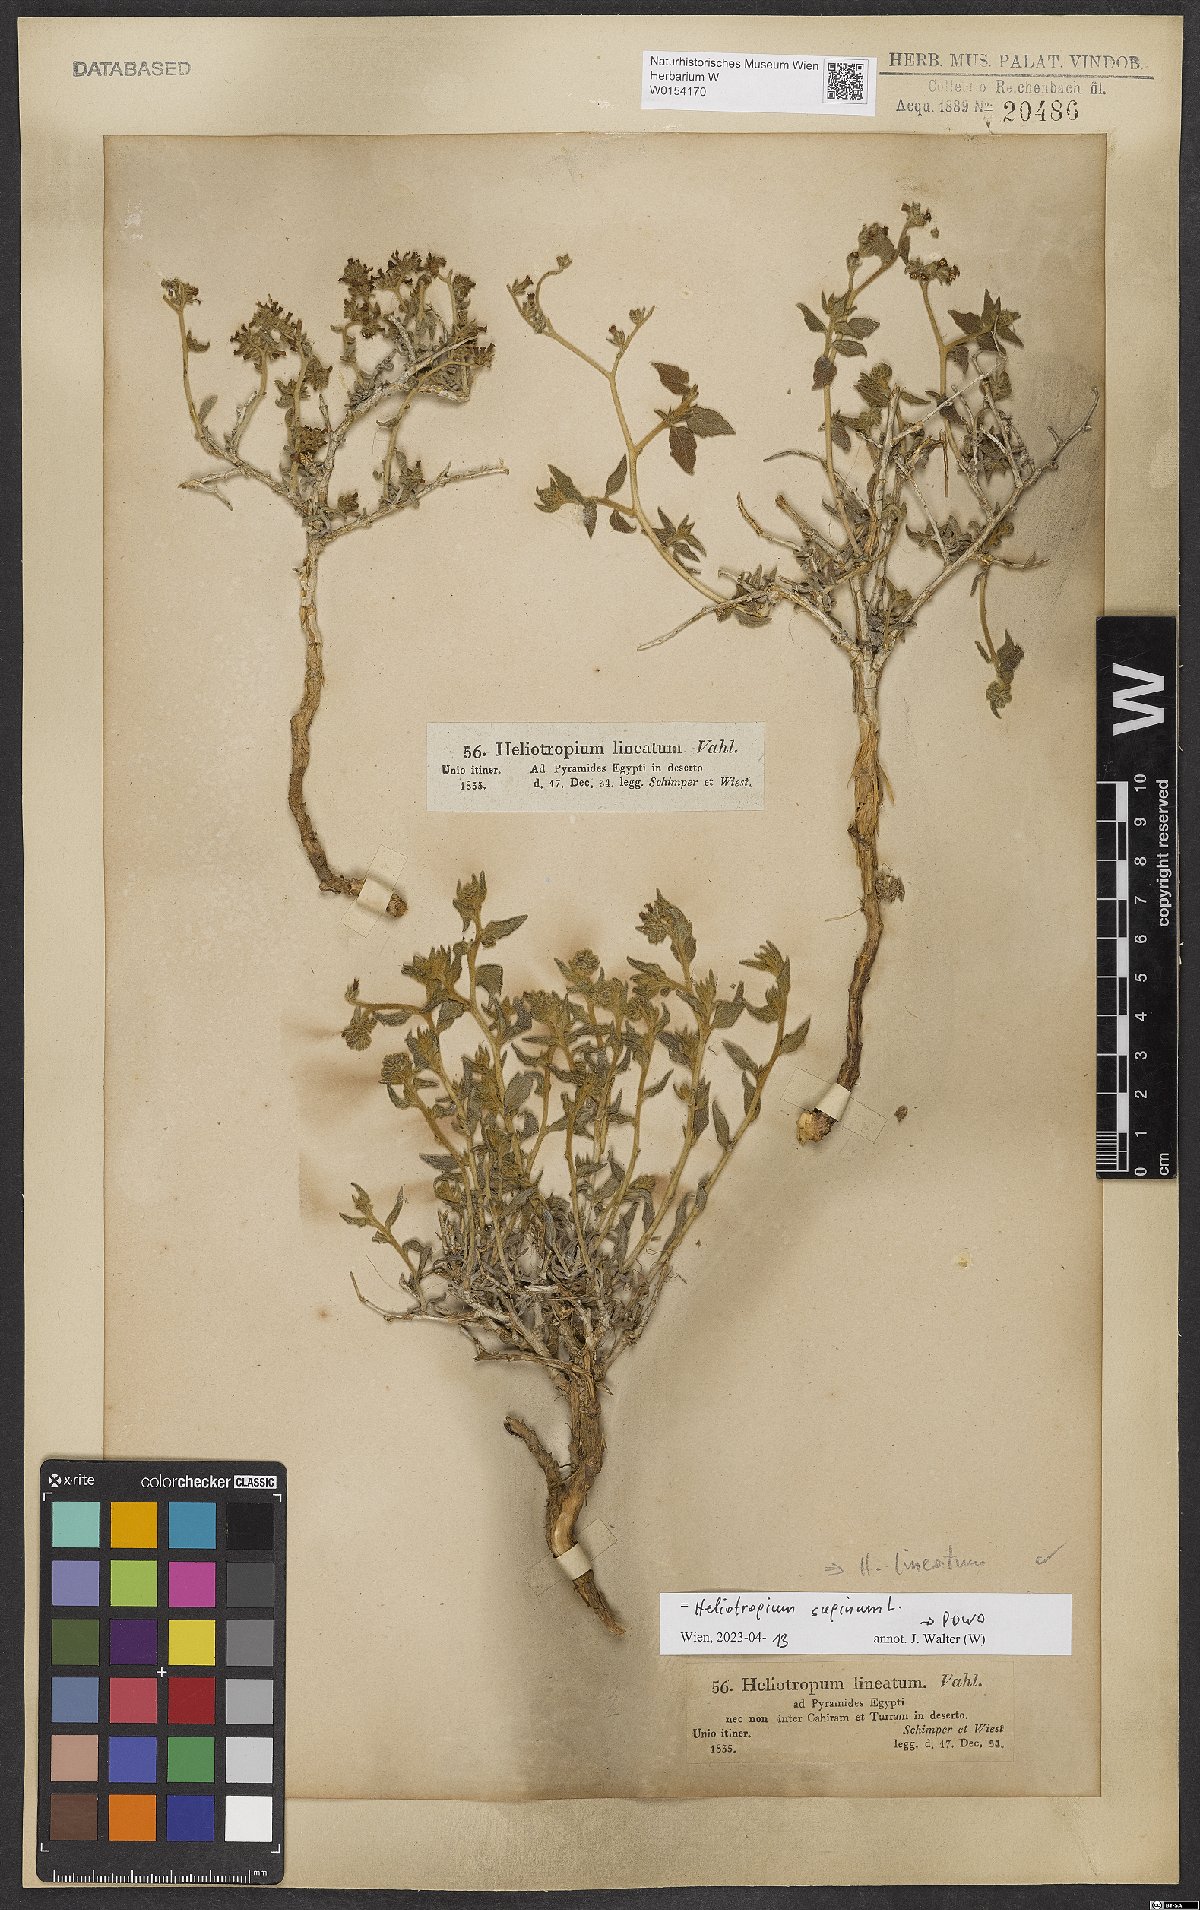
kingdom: Plantae
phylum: Tracheophyta
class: Magnoliopsida
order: Boraginales
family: Heliotropiaceae
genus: Heliotropium
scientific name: Heliotropium supinum
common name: Dwarf heliotrope
